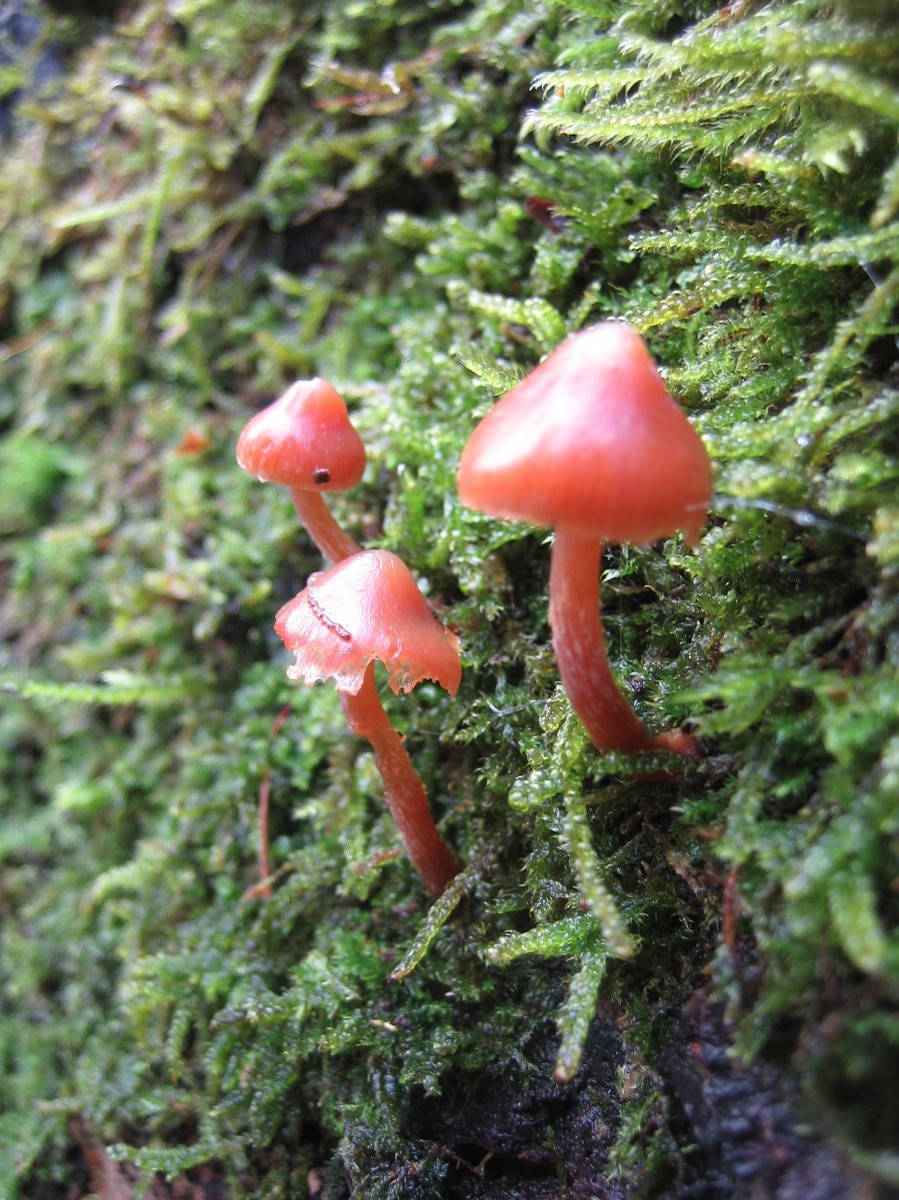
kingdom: Fungi
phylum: Basidiomycota
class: Agaricomycetes
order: Agaricales
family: Hymenogastraceae
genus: Galerina
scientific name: Galerina
